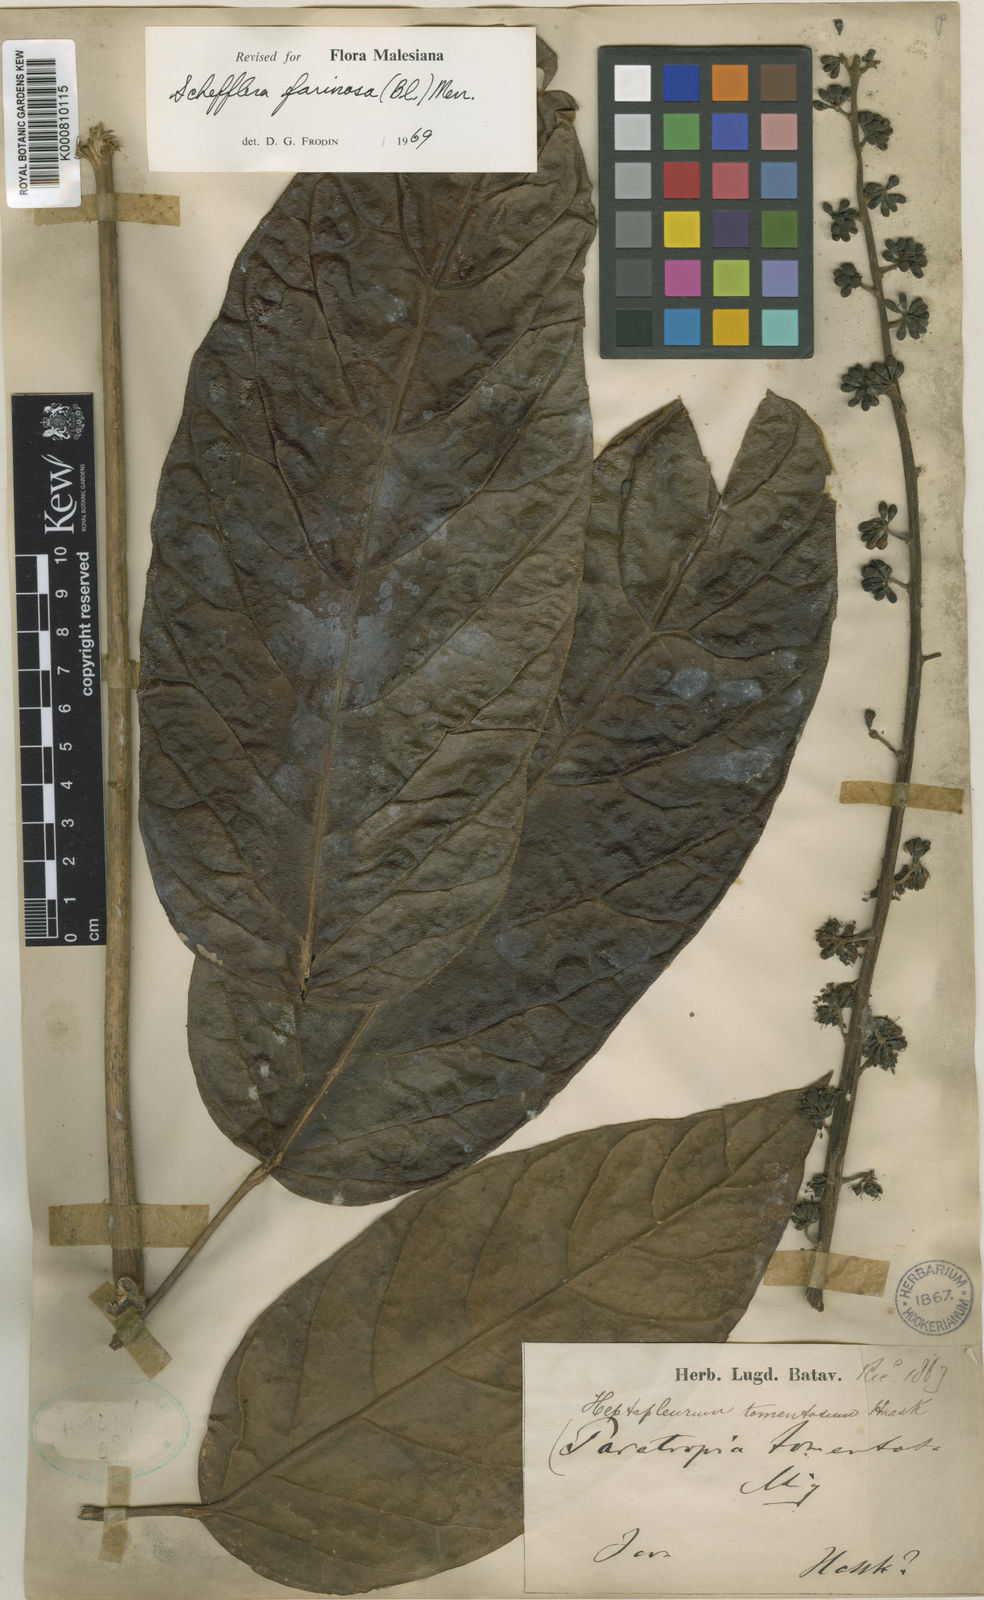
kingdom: Plantae
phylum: Tracheophyta
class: Magnoliopsida
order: Apiales
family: Araliaceae
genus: Heptapleurum
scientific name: Heptapleurum farinosum
